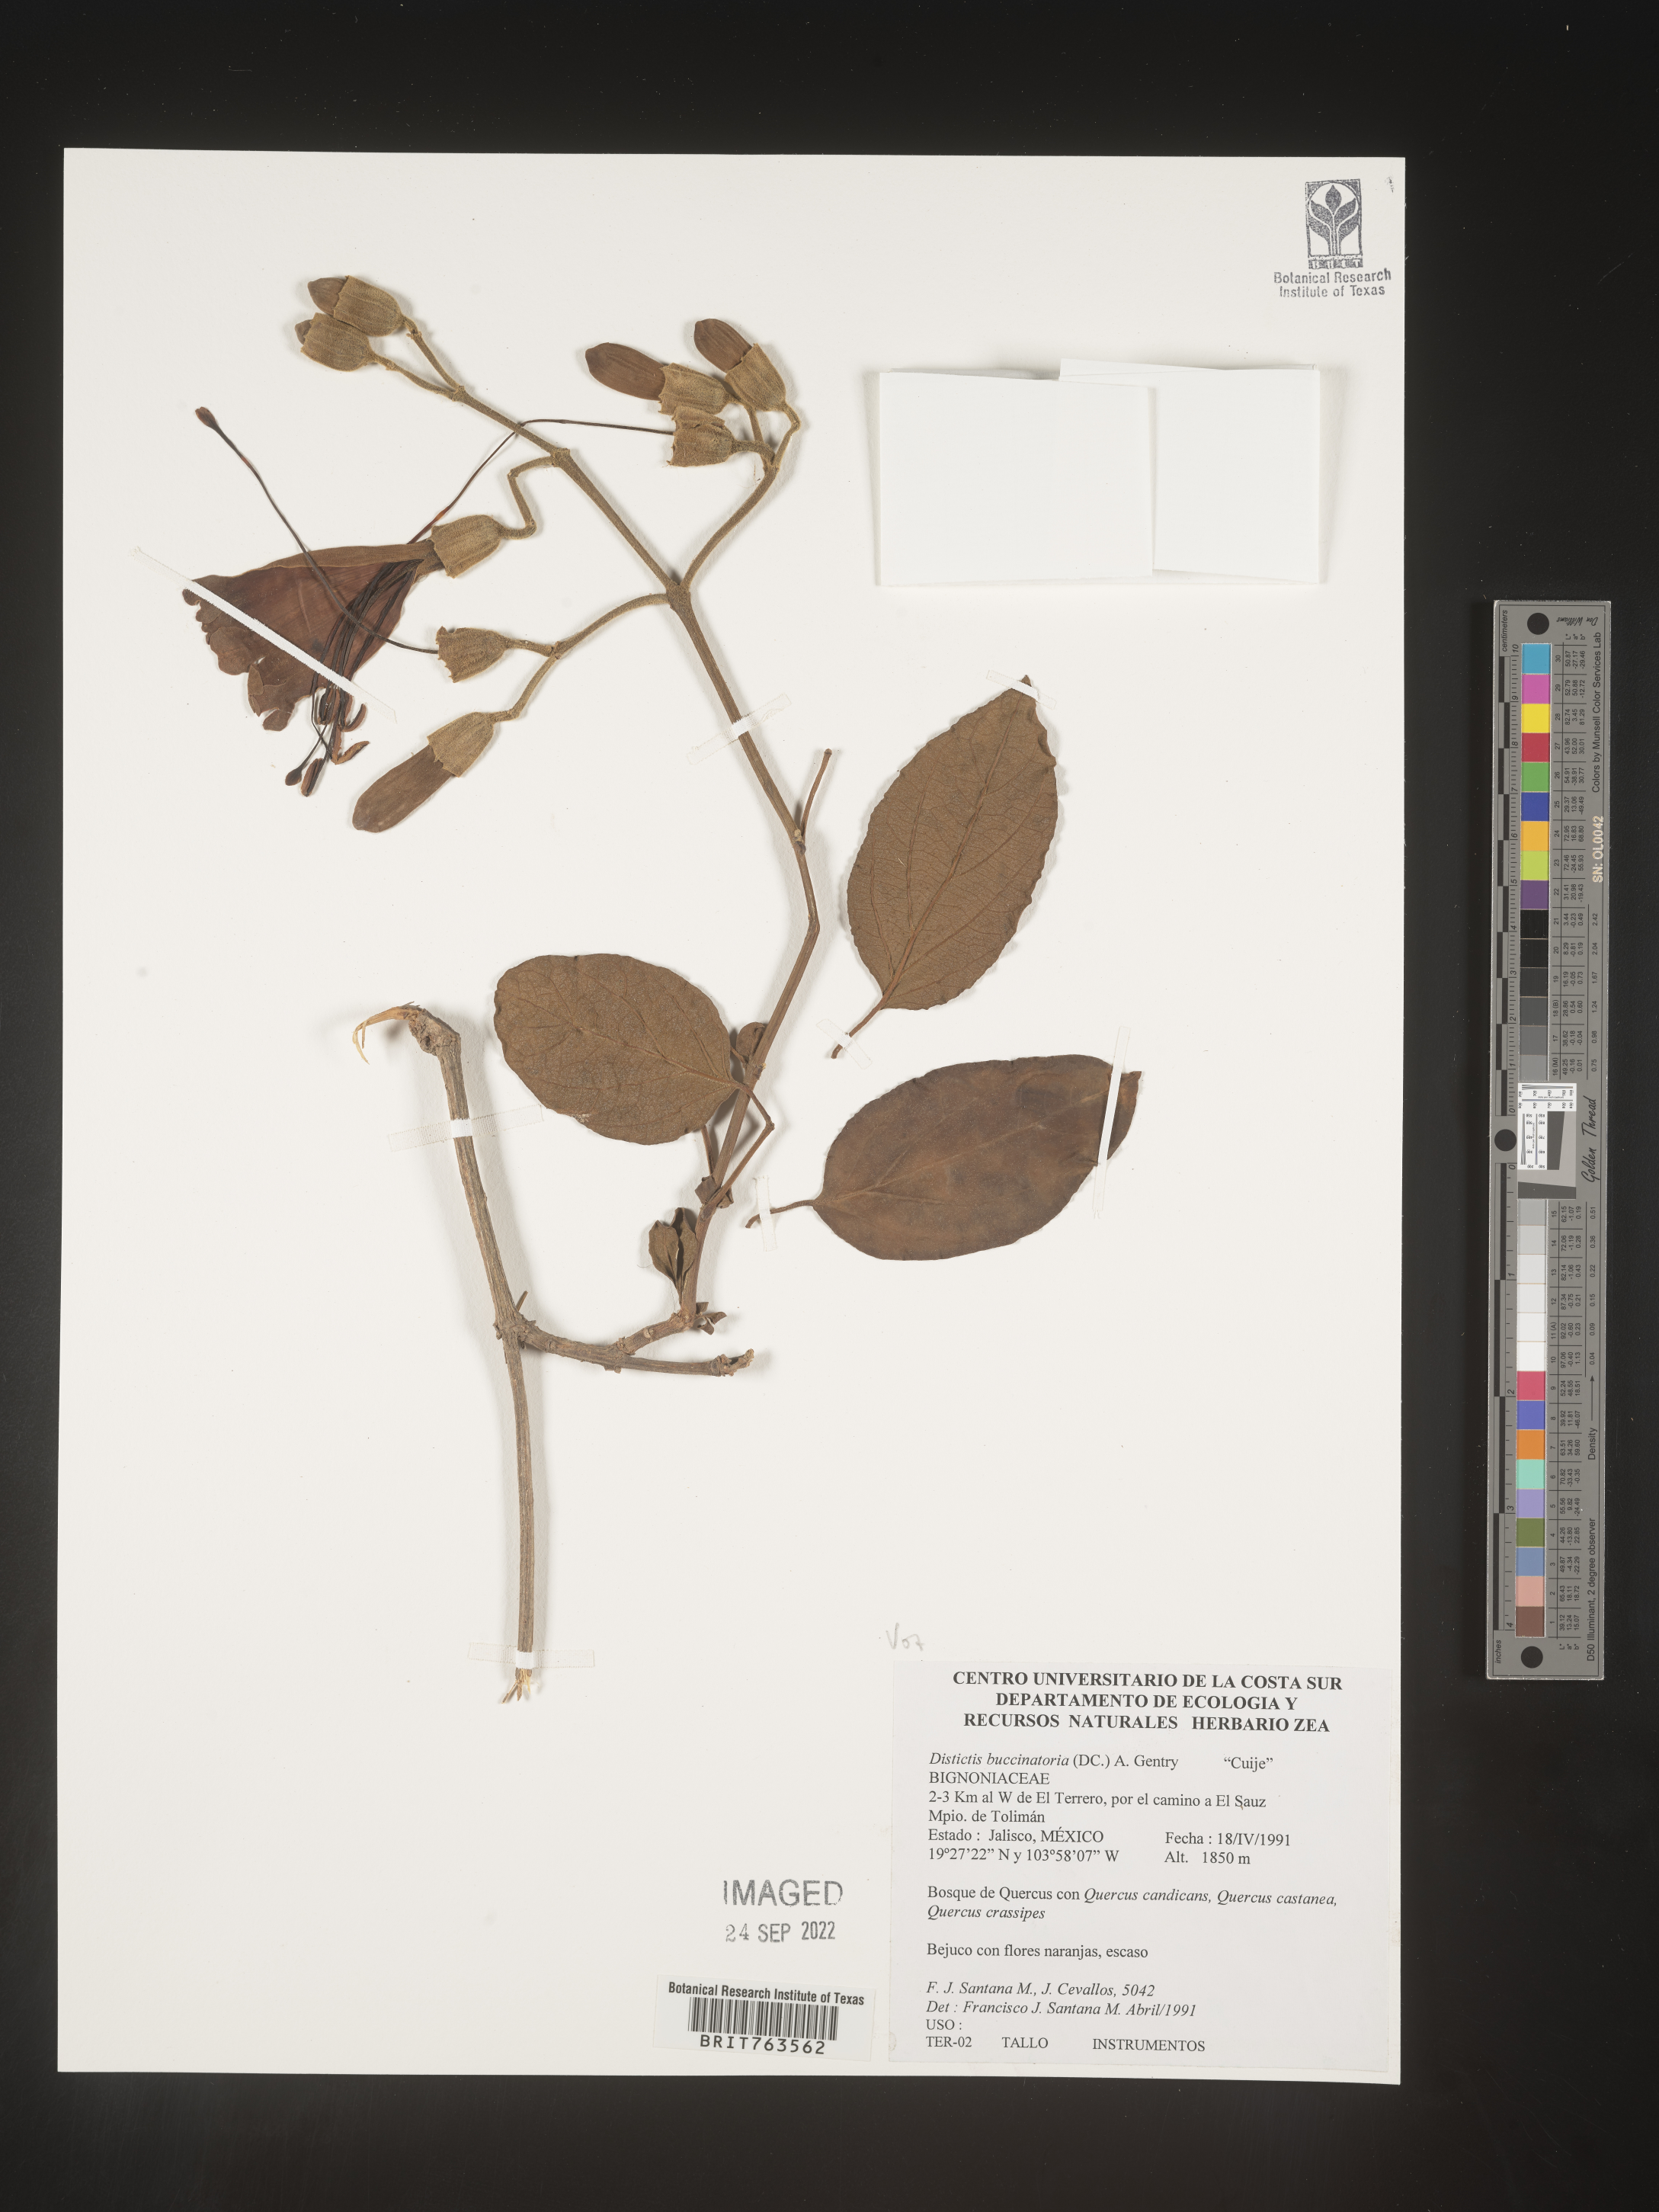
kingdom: Plantae
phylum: Tracheophyta
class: Magnoliopsida
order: Lamiales
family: Bignoniaceae
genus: Amphilophium
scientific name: Amphilophium
